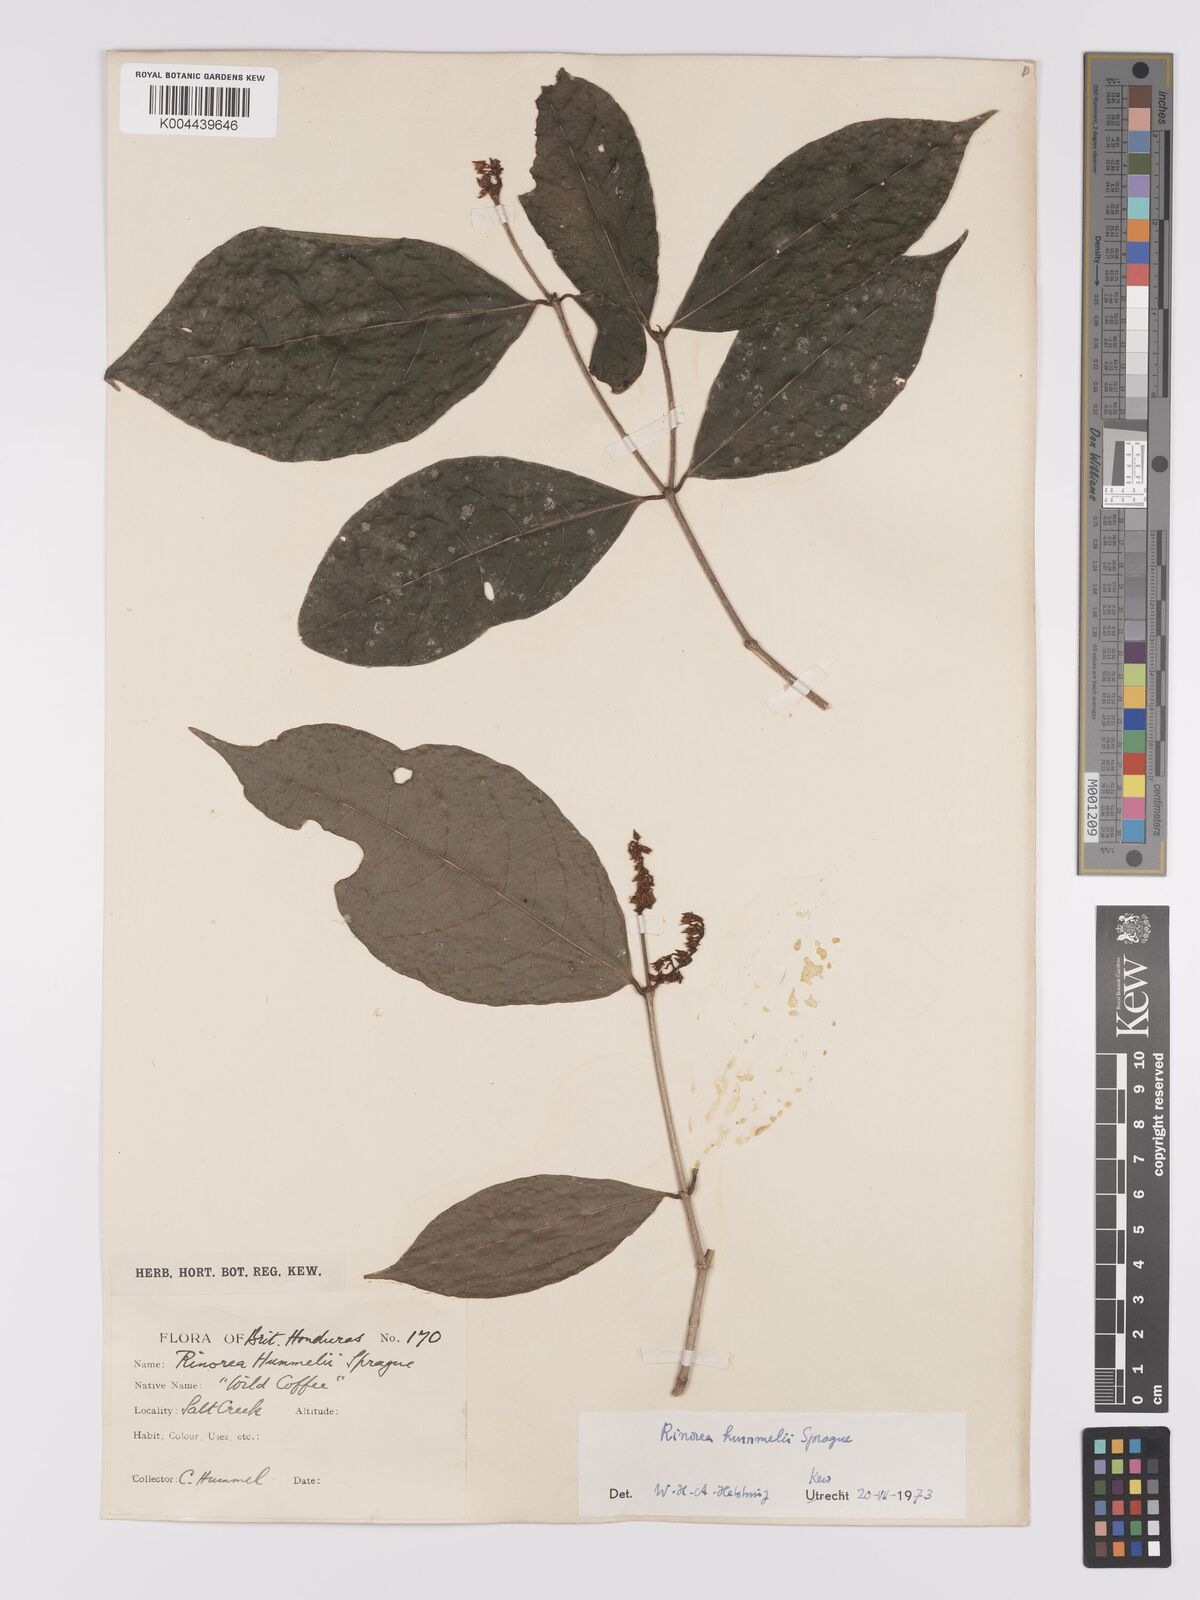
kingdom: Plantae
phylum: Tracheophyta
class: Magnoliopsida
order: Malpighiales
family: Violaceae
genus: Rinorea
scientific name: Rinorea hummelii
